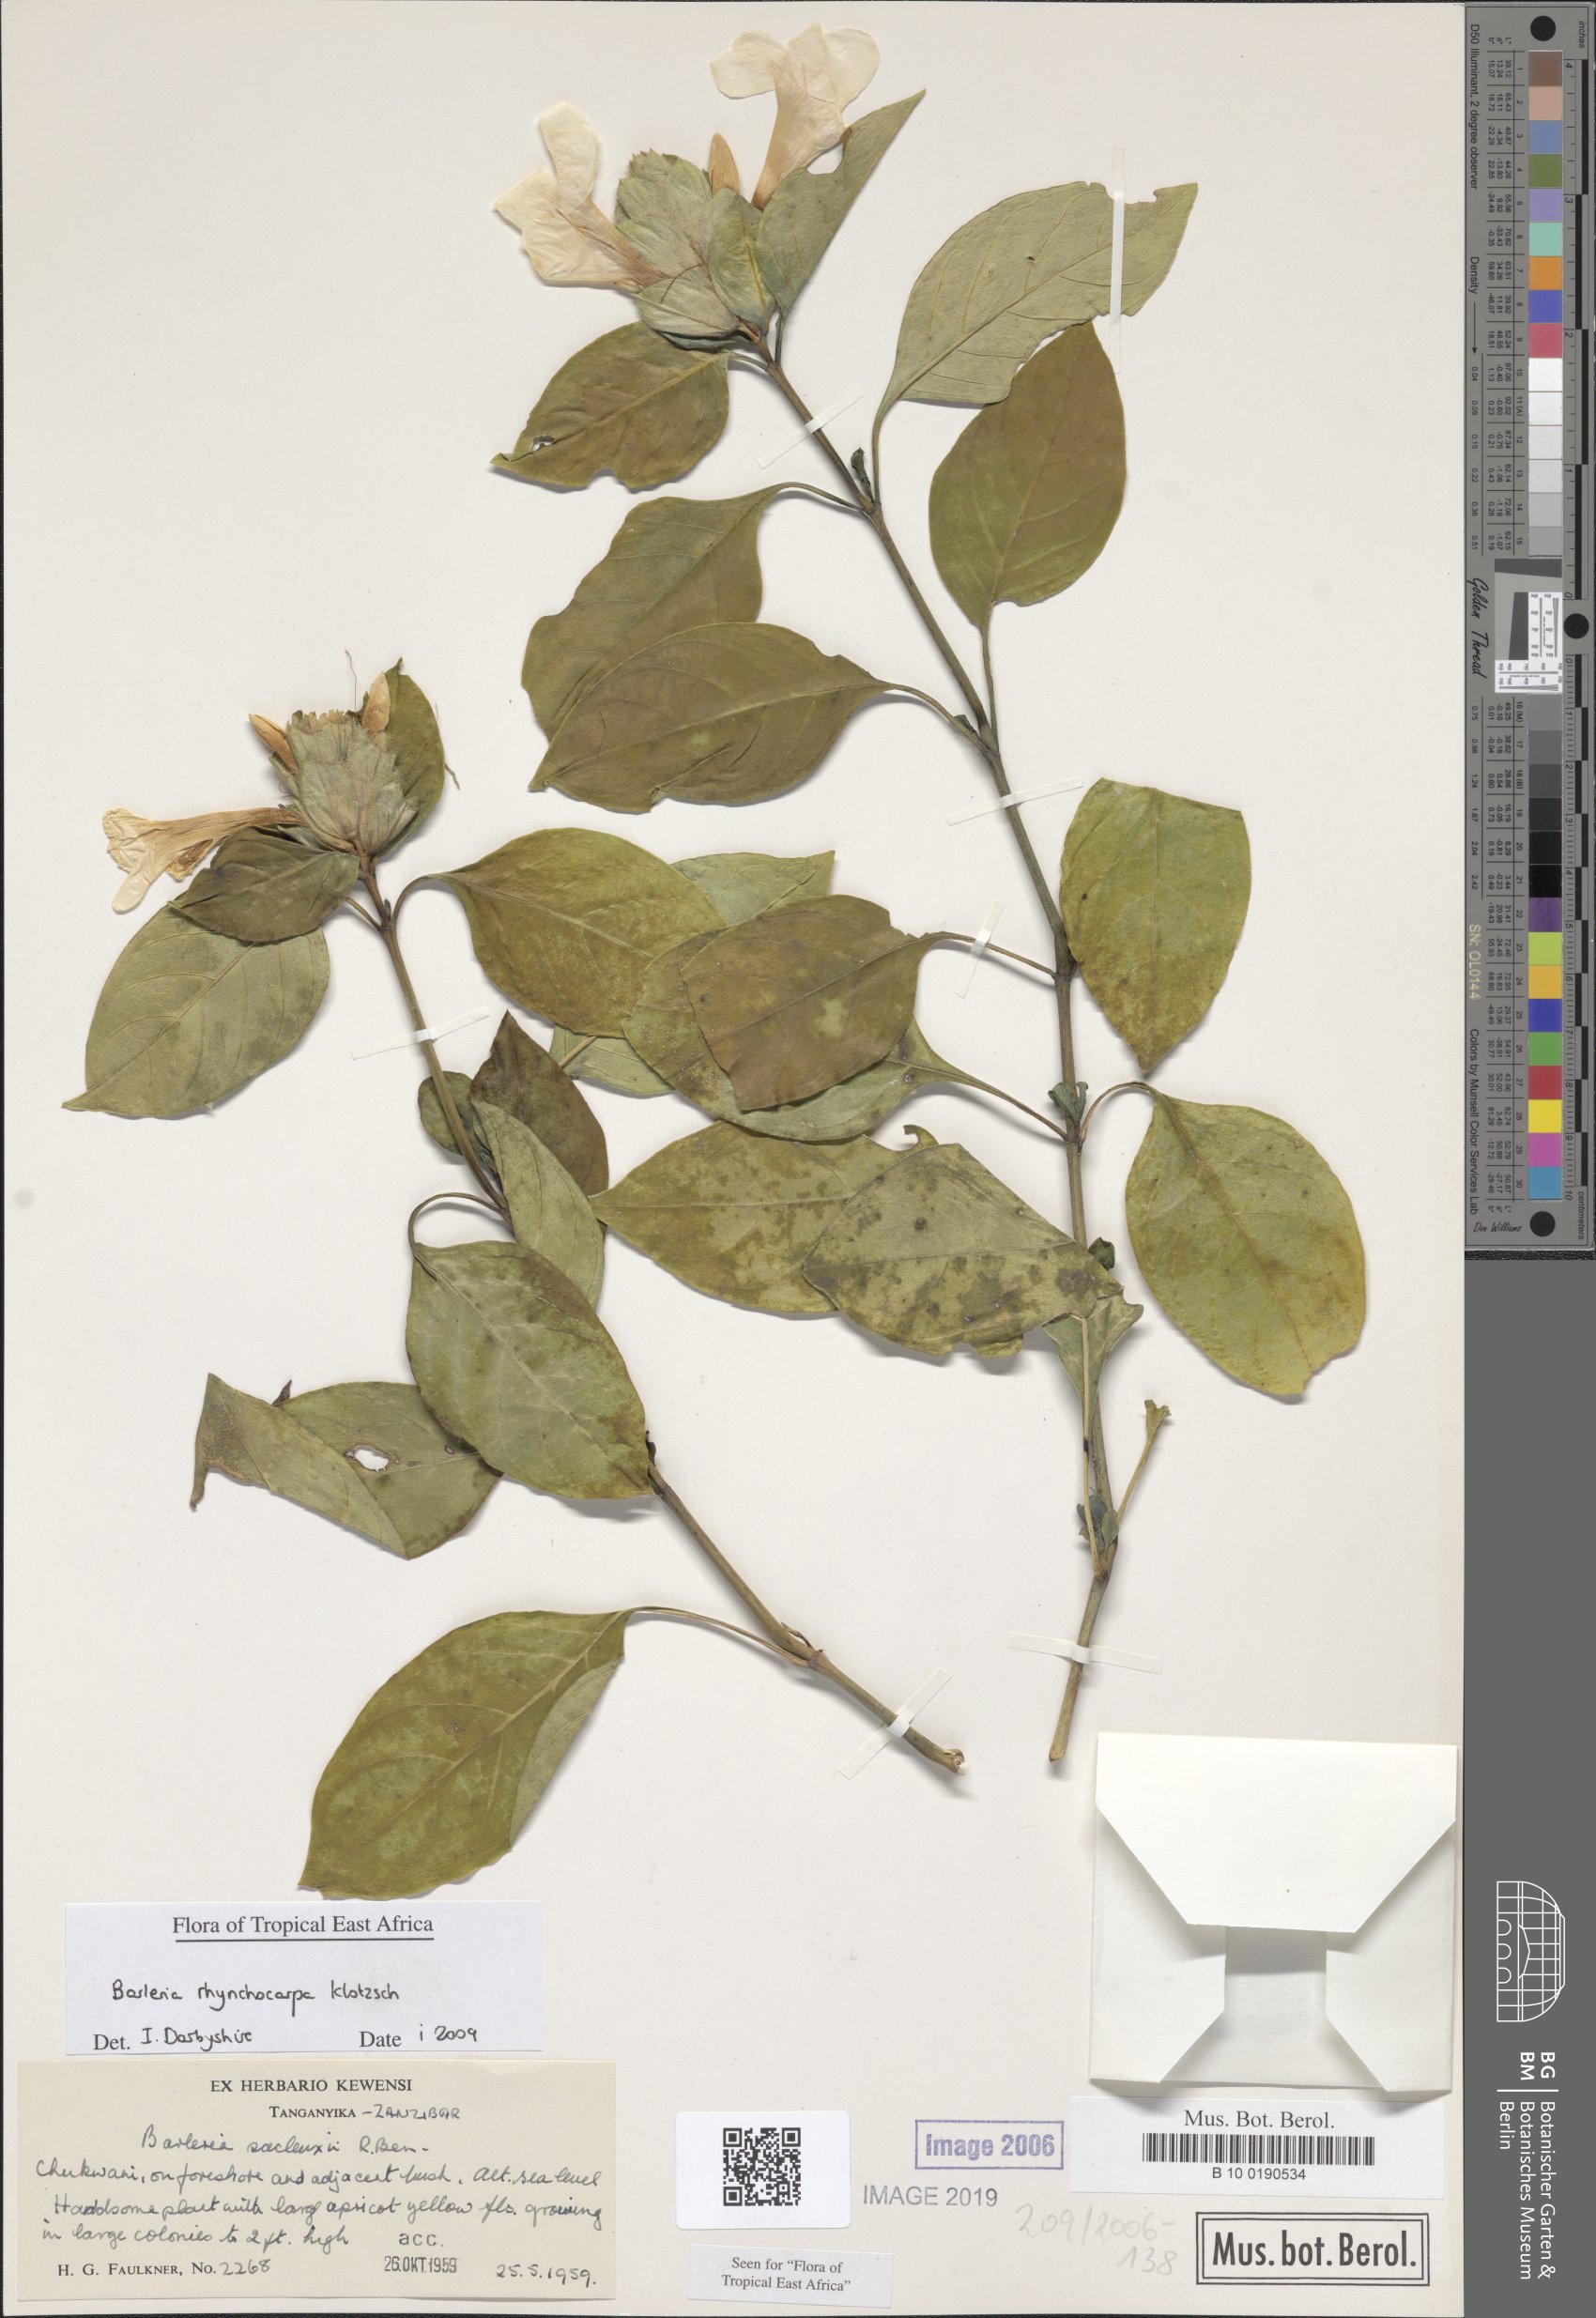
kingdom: Plantae
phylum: Tracheophyta
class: Magnoliopsida
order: Lamiales
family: Acanthaceae
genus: Barleria
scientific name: Barleria rhynchocarpa
